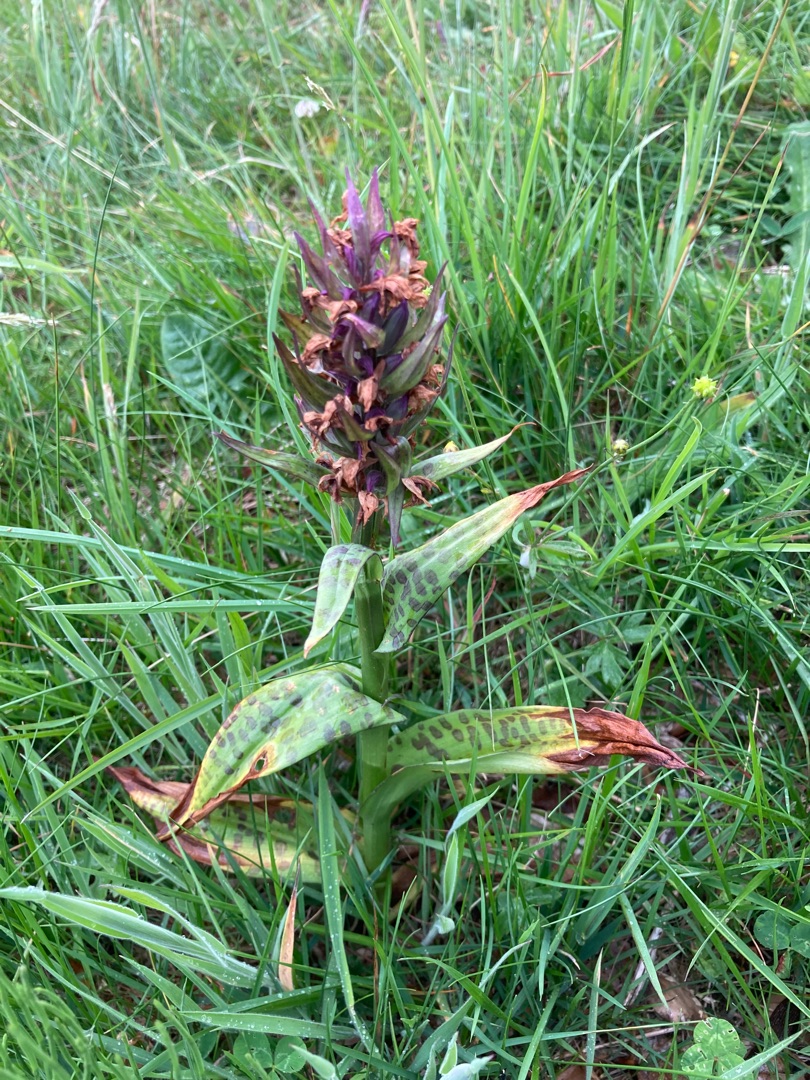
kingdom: Plantae
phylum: Tracheophyta
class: Liliopsida
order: Asparagales
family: Orchidaceae
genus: Dactylorhiza
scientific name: Dactylorhiza majalis
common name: Maj-gøgeurt
